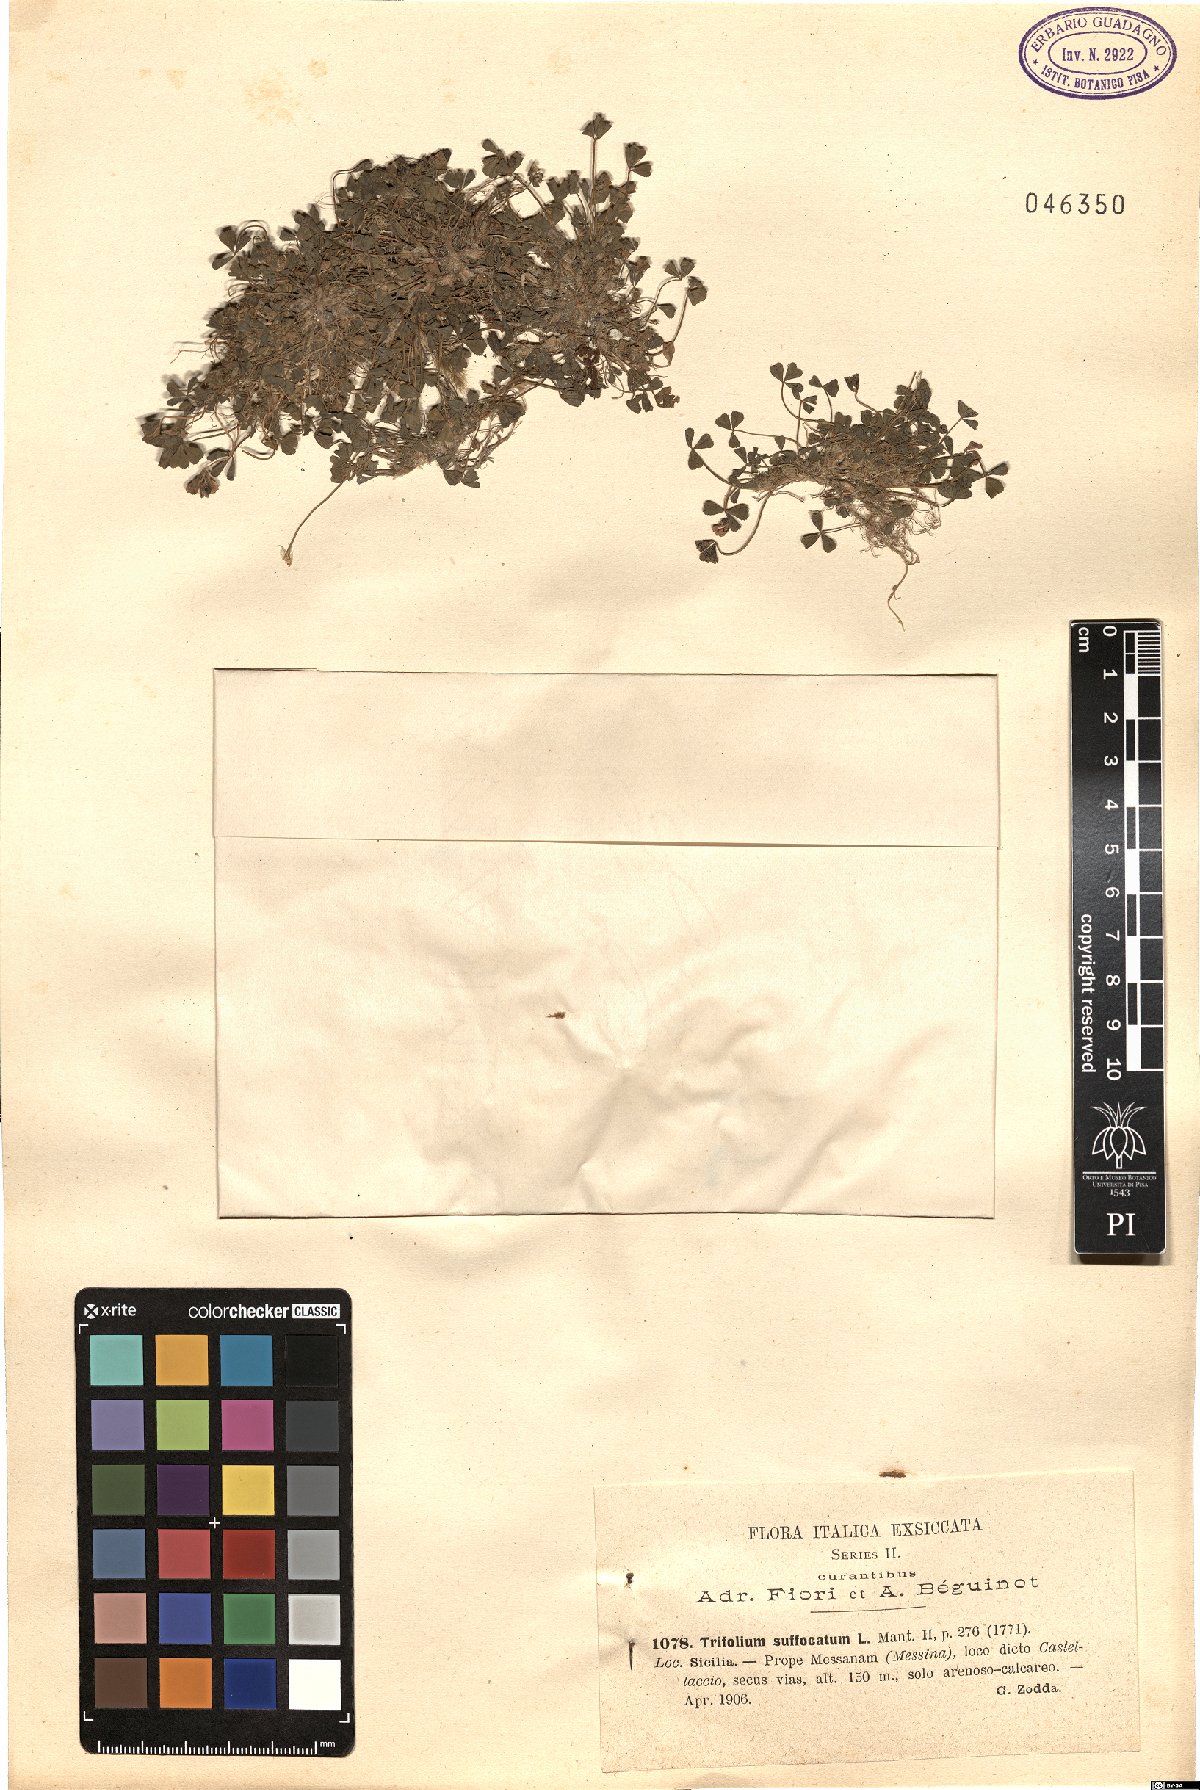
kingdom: Plantae
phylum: Tracheophyta
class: Magnoliopsida
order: Fabales
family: Fabaceae
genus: Trifolium
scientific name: Trifolium suffocatum
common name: Suffocated clover
